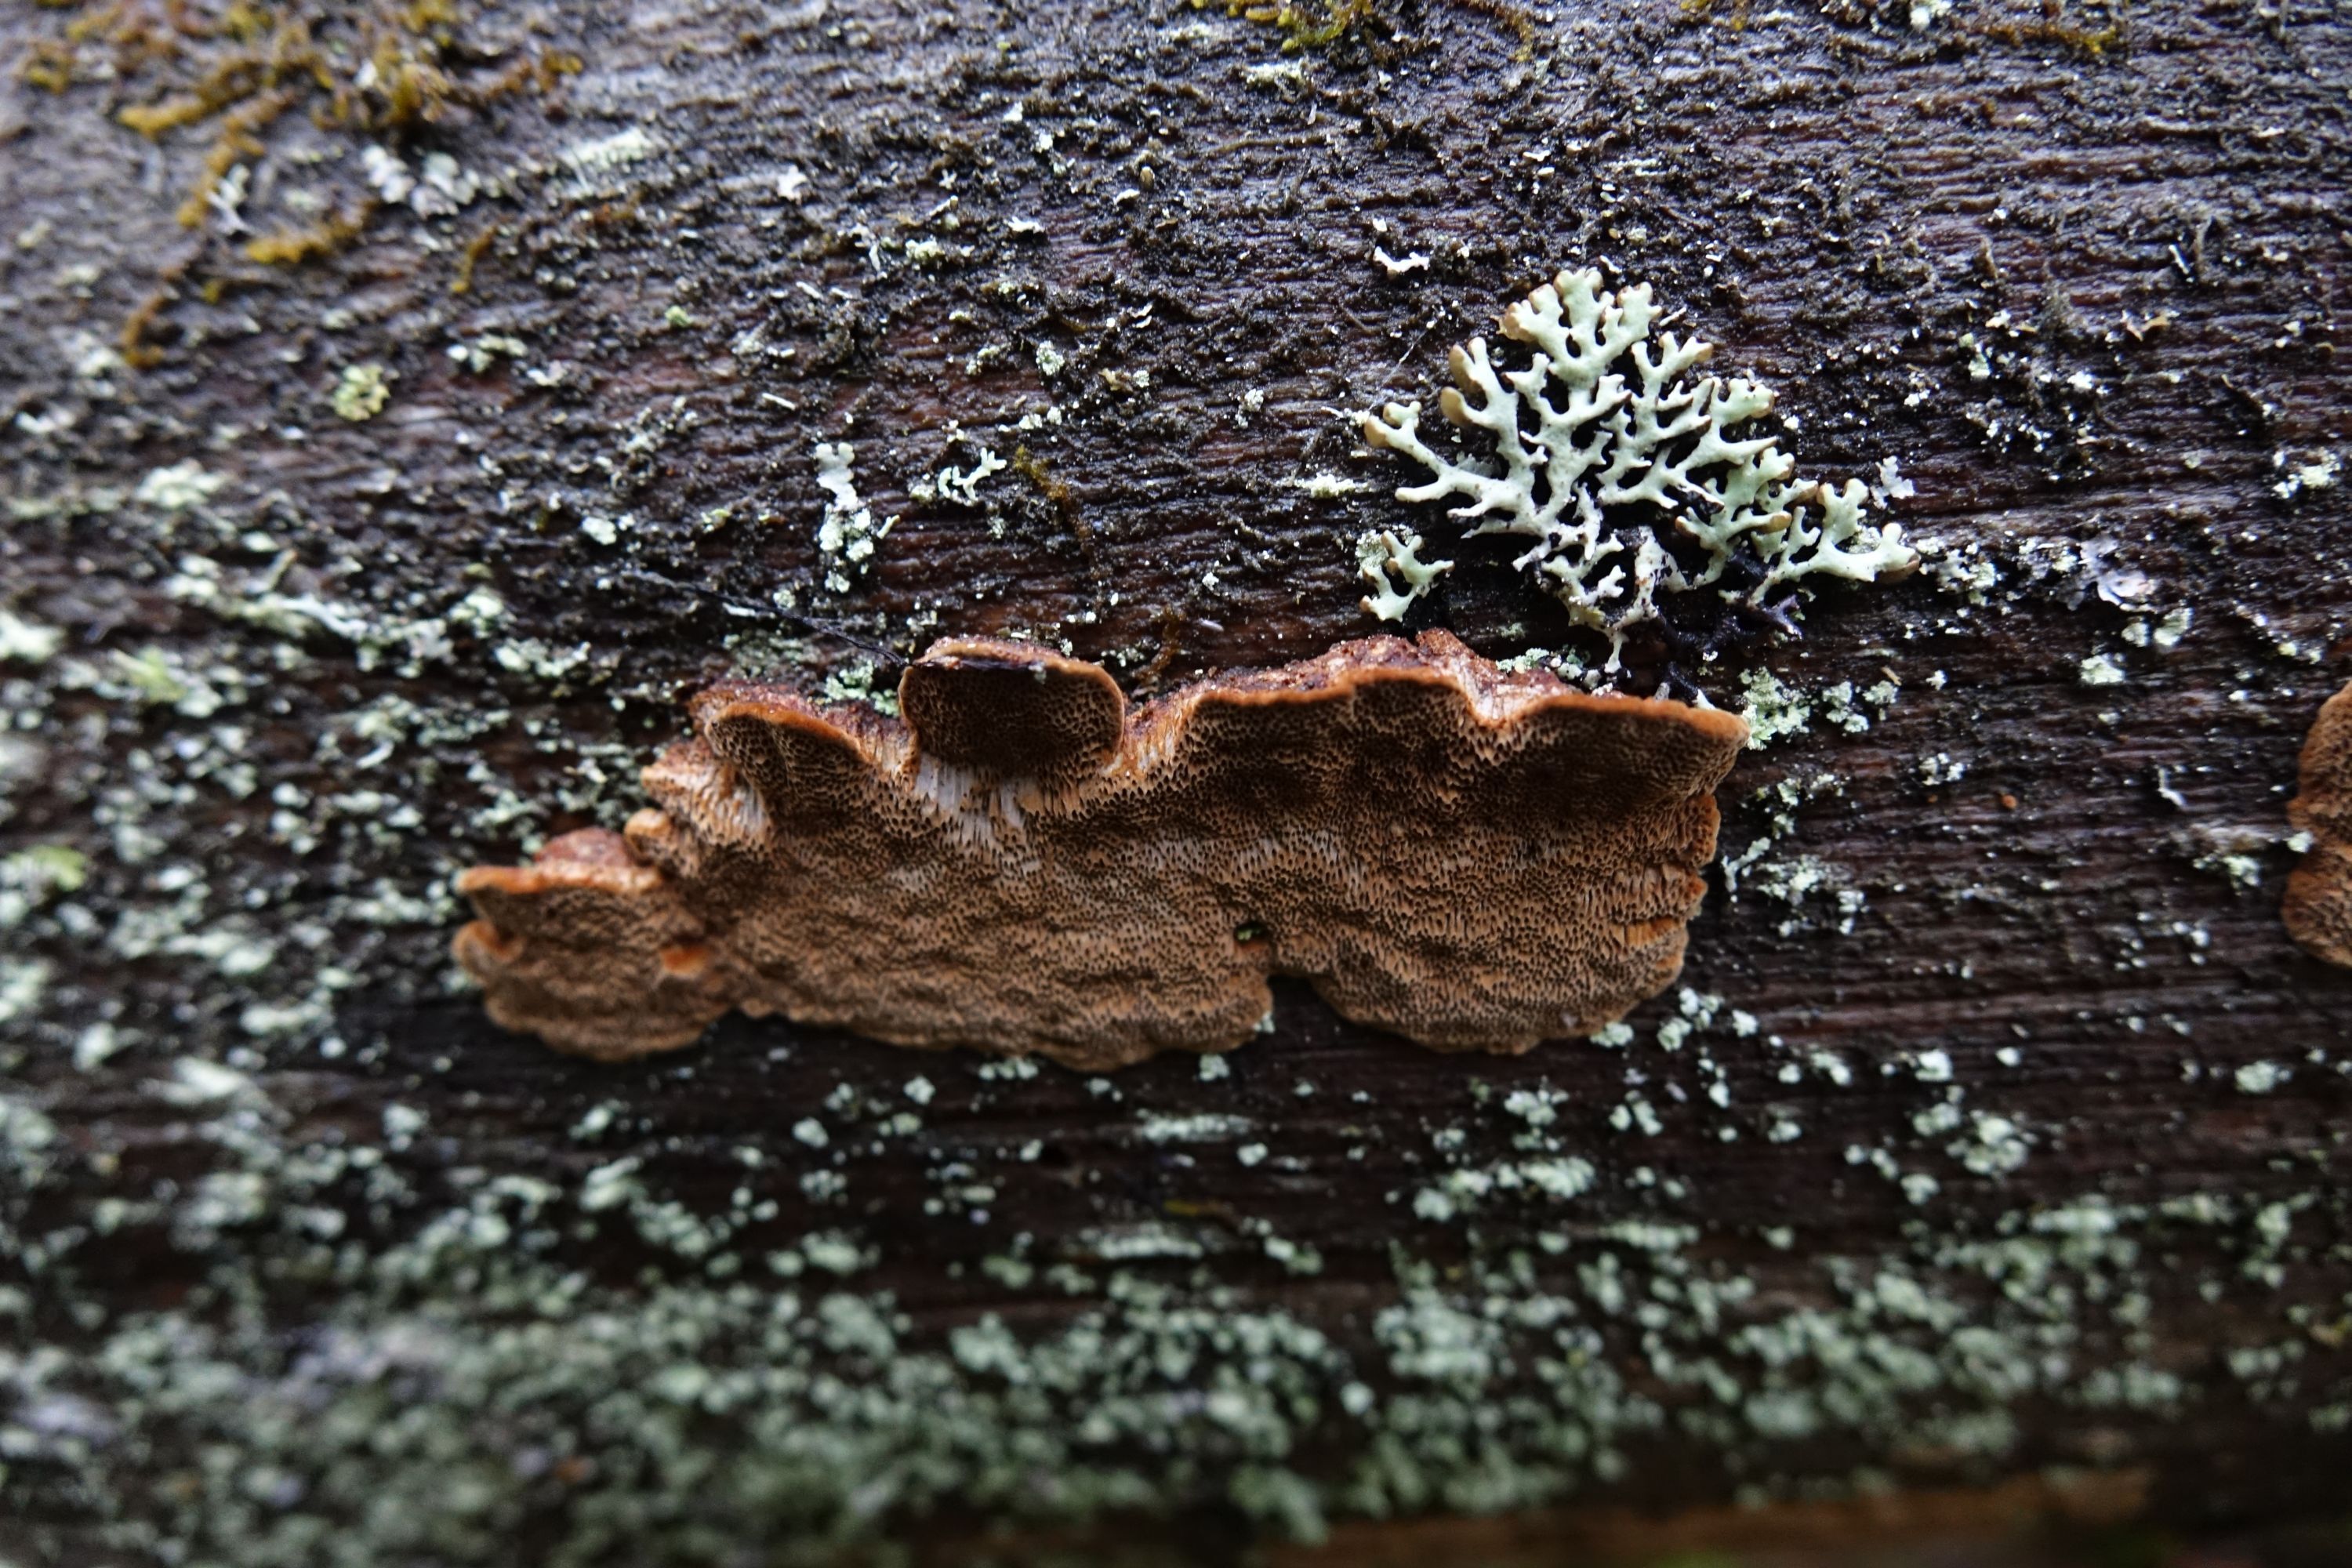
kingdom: Fungi
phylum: Basidiomycota
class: Agaricomycetes
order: Hymenochaetales
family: Hymenochaetaceae
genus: Phellinus
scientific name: Phellinus viticola
